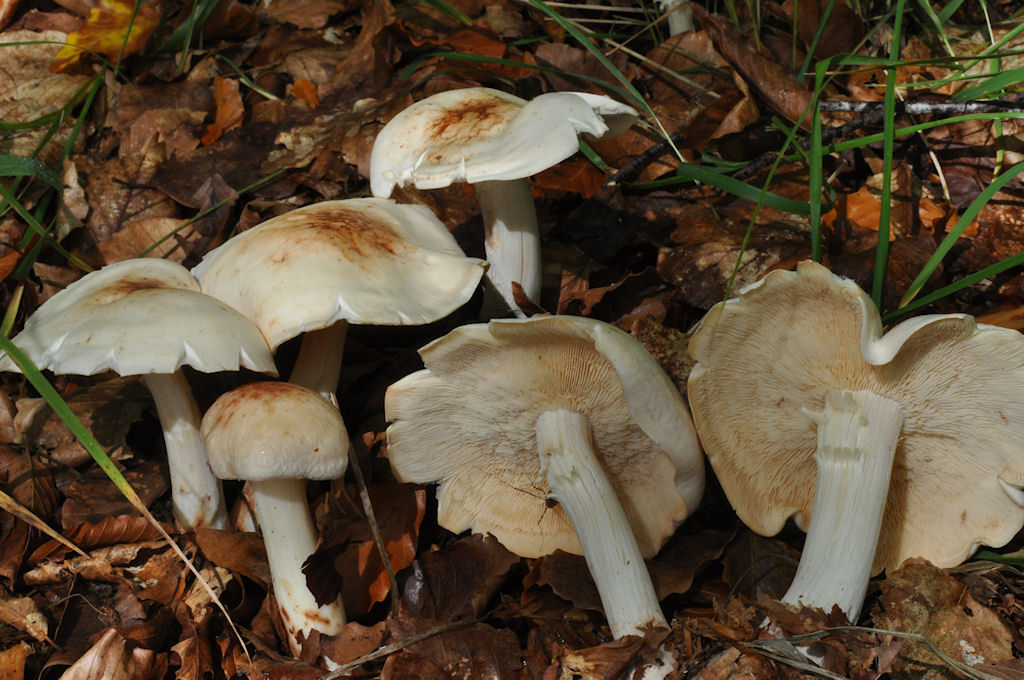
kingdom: Fungi
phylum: Basidiomycota
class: Agaricomycetes
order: Agaricales
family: Omphalotaceae
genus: Rhodocollybia
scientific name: Rhodocollybia maculata
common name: plettet fladhat
